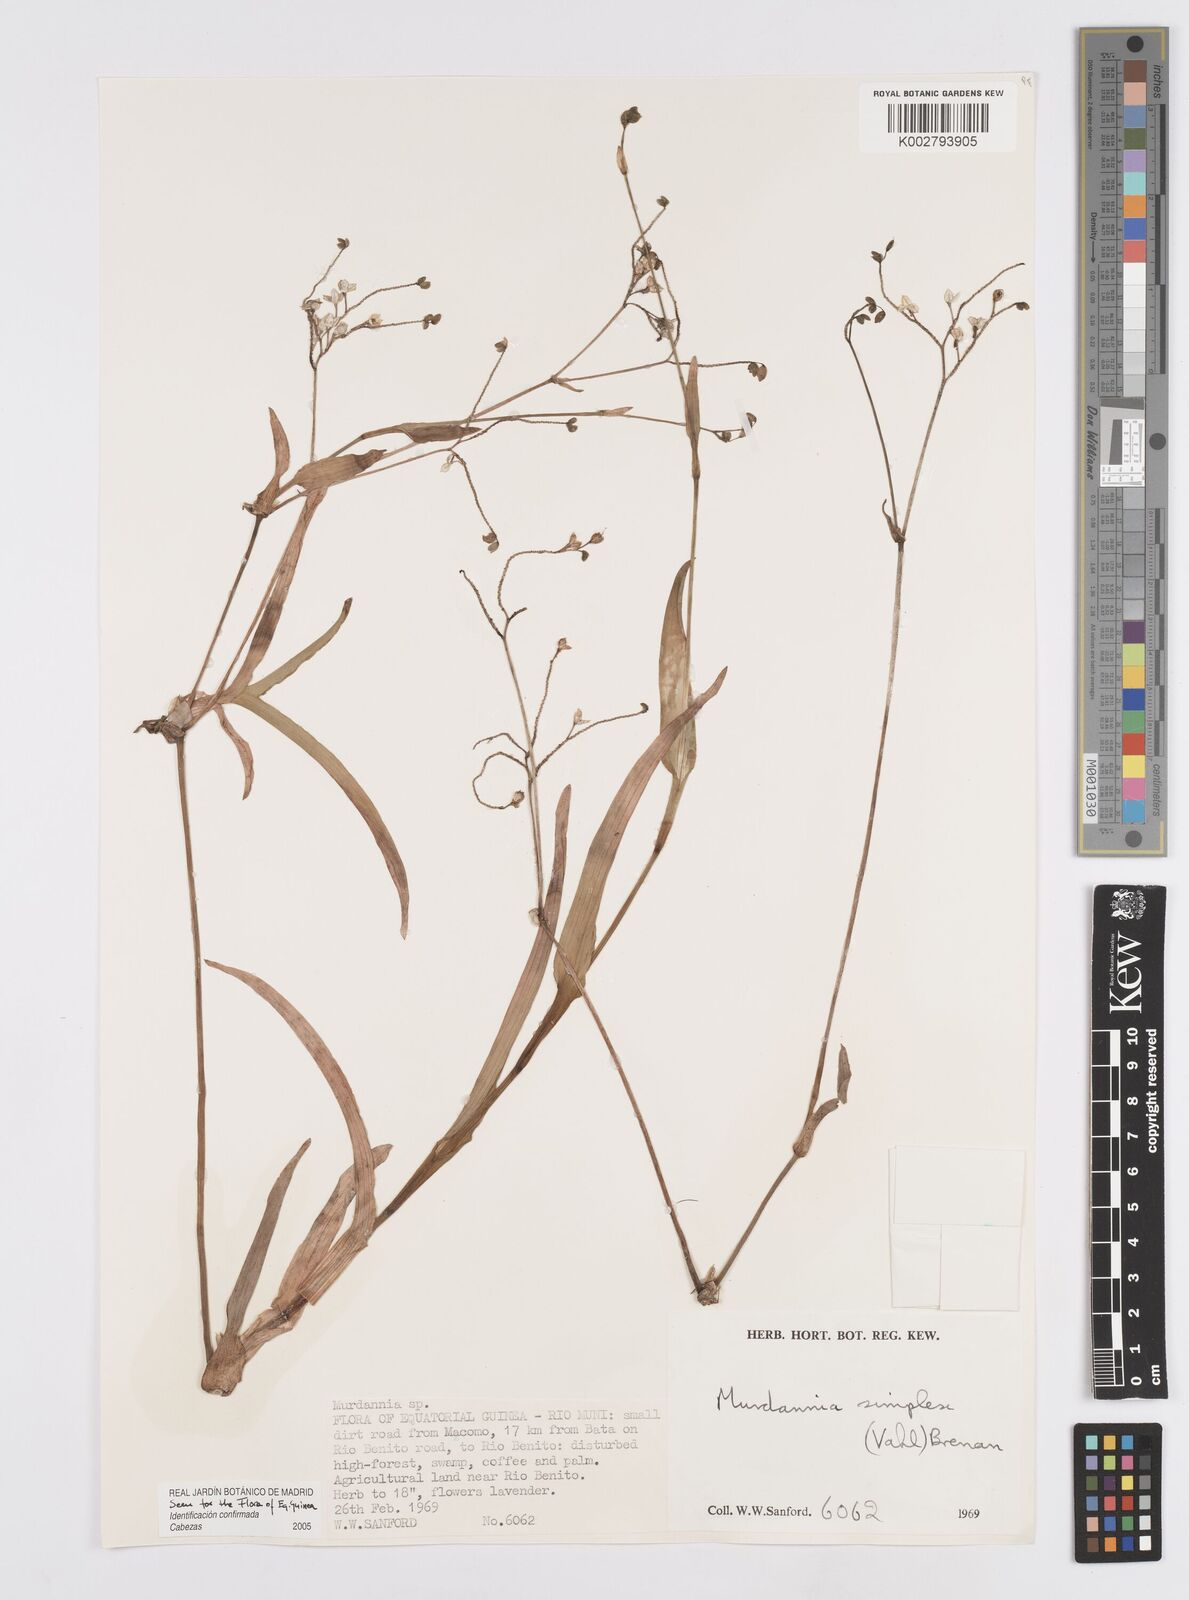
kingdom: Plantae
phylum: Tracheophyta
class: Liliopsida
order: Commelinales
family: Commelinaceae
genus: Murdannia
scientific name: Murdannia simplex
